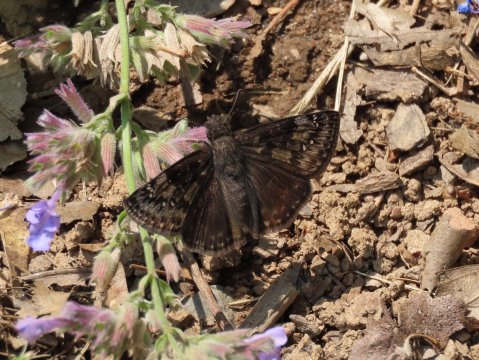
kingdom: Animalia
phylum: Arthropoda
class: Insecta
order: Lepidoptera
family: Hesperiidae
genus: Erynnis
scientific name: Erynnis
